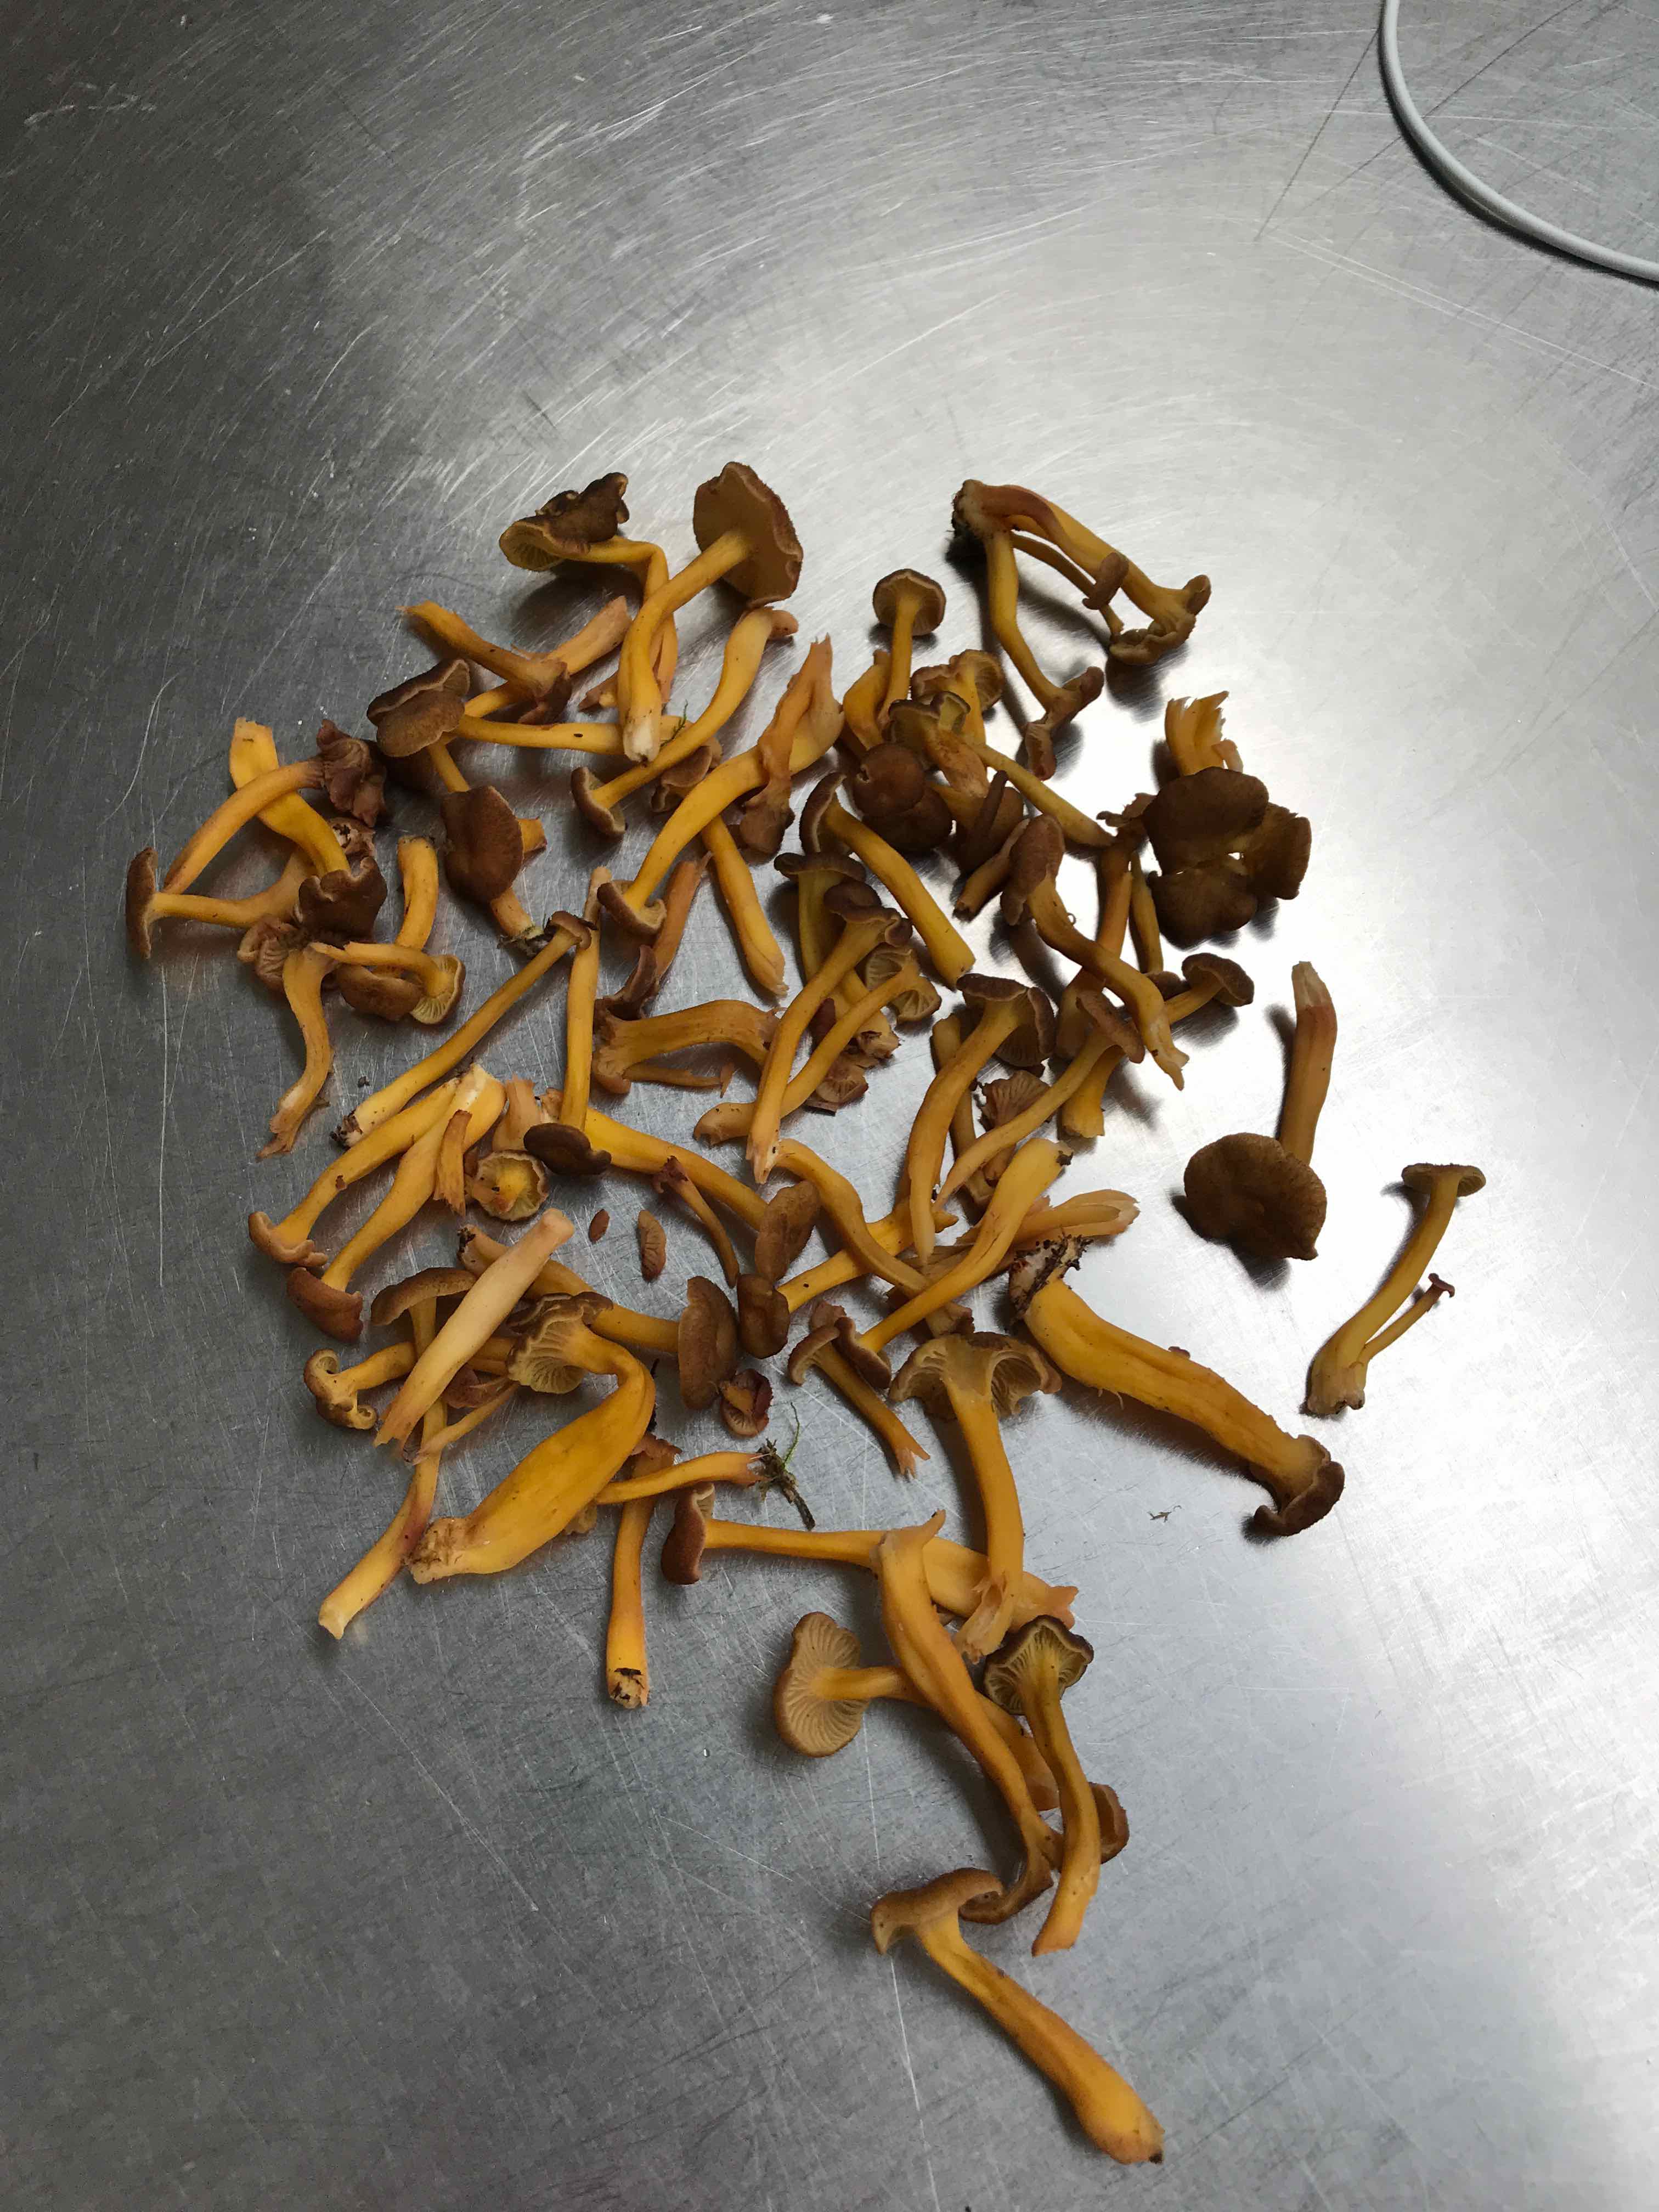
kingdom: Fungi
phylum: Basidiomycota
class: Agaricomycetes
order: Cantharellales
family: Hydnaceae
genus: Craterellus
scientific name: Craterellus tubaeformis
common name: tragt-kantarel
